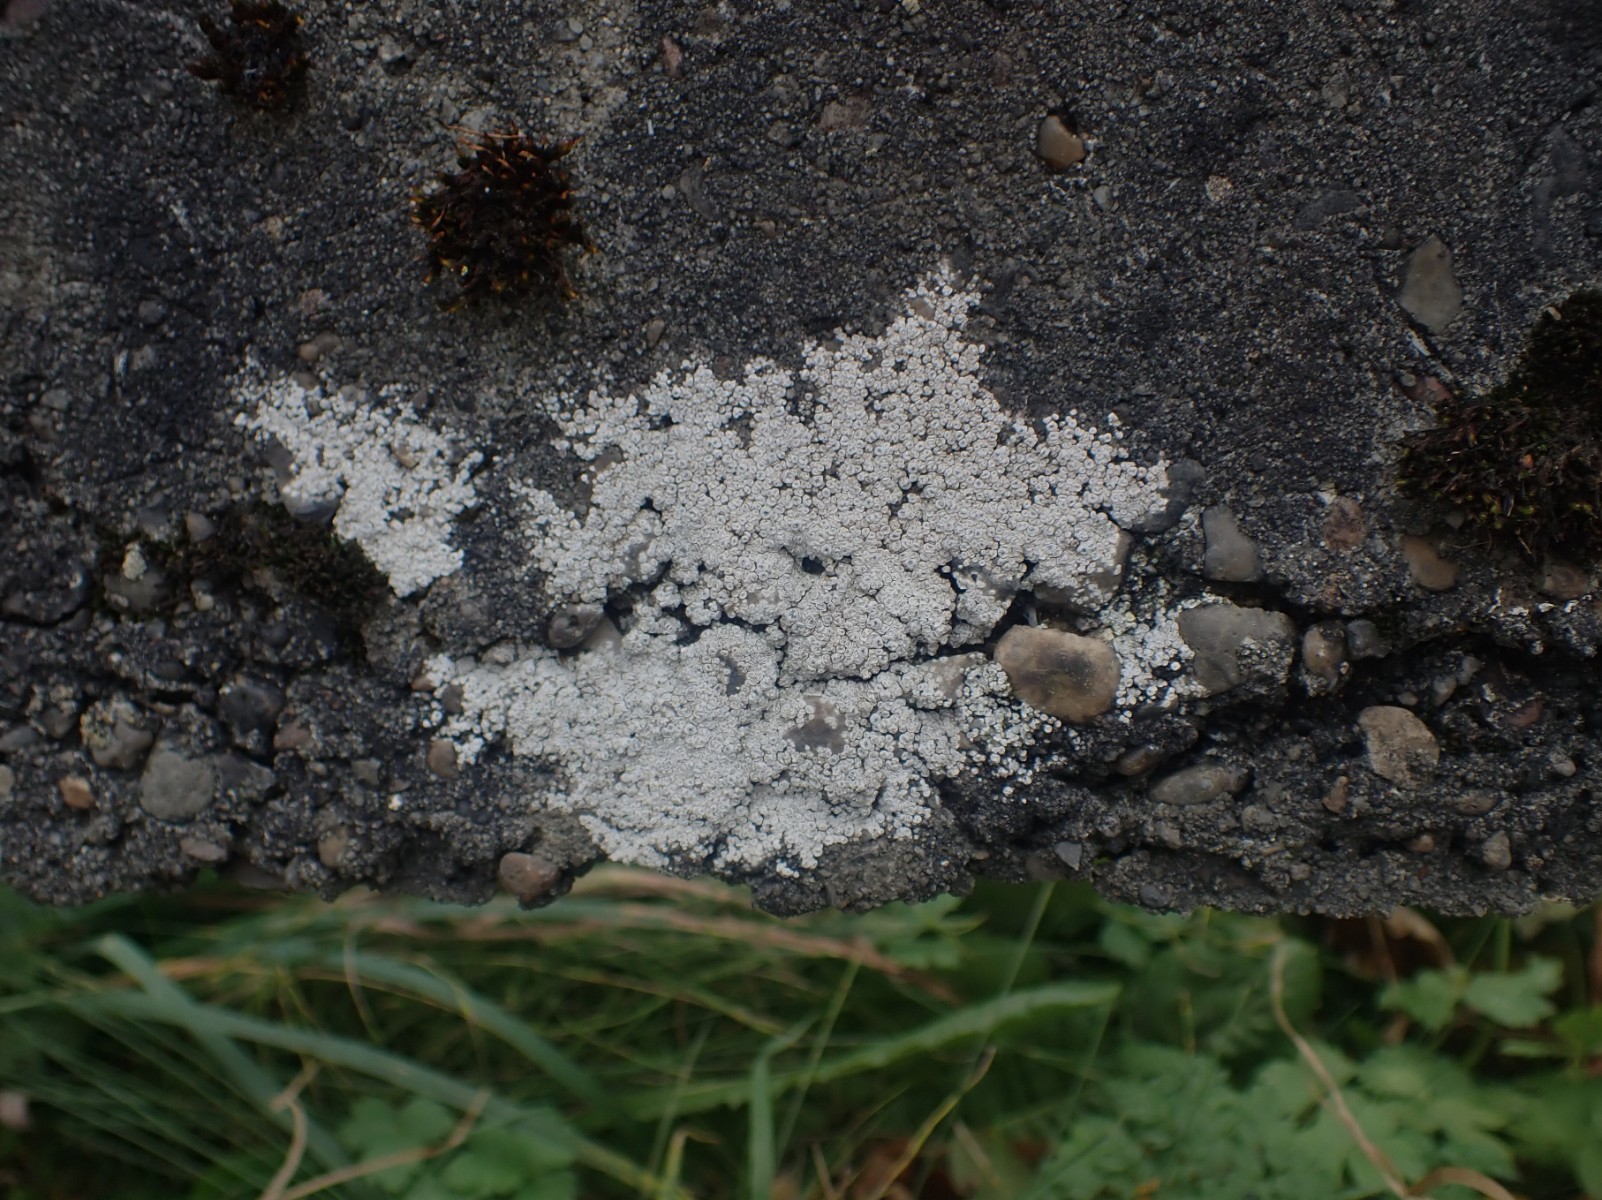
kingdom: Fungi
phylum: Ascomycota
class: Lecanoromycetes
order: Pertusariales
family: Megasporaceae
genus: Circinaria
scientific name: Circinaria contorta
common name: indviklet hulskivelav
